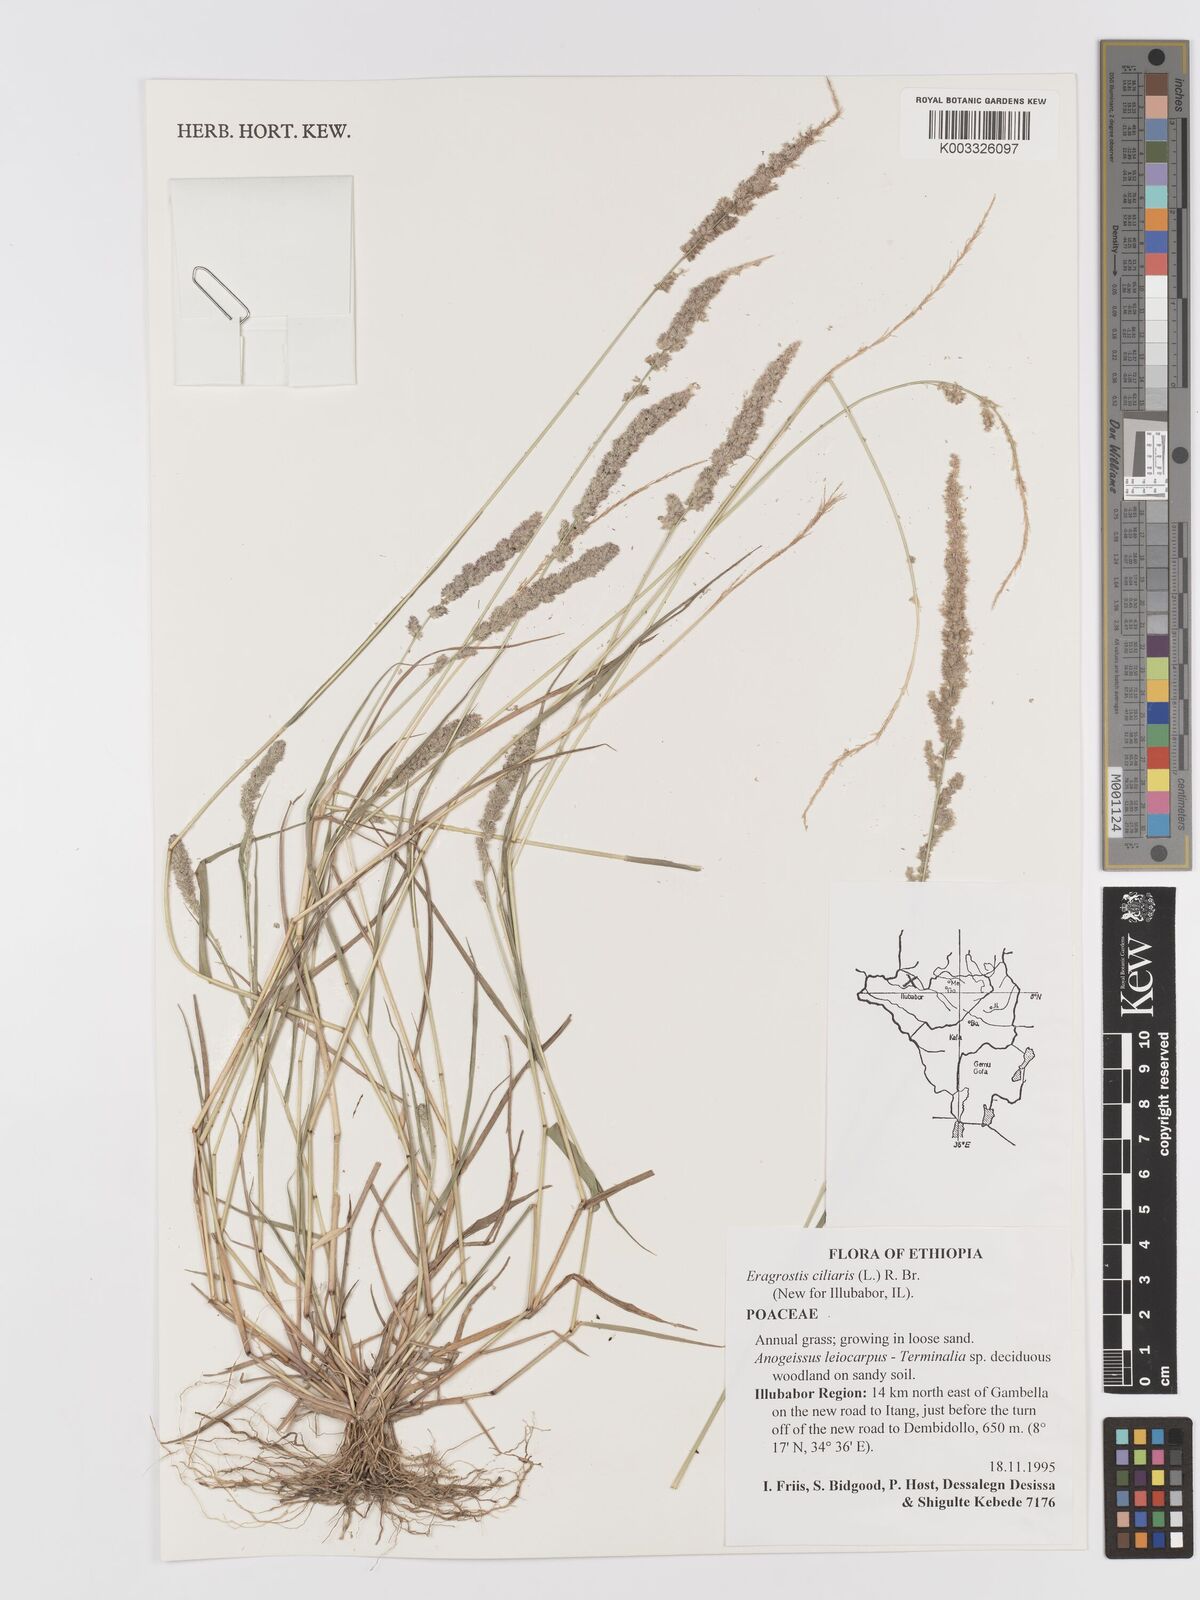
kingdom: Plantae
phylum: Tracheophyta
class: Liliopsida
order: Poales
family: Poaceae
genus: Eragrostis
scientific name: Eragrostis ciliaris
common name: Gophertail lovegrass
